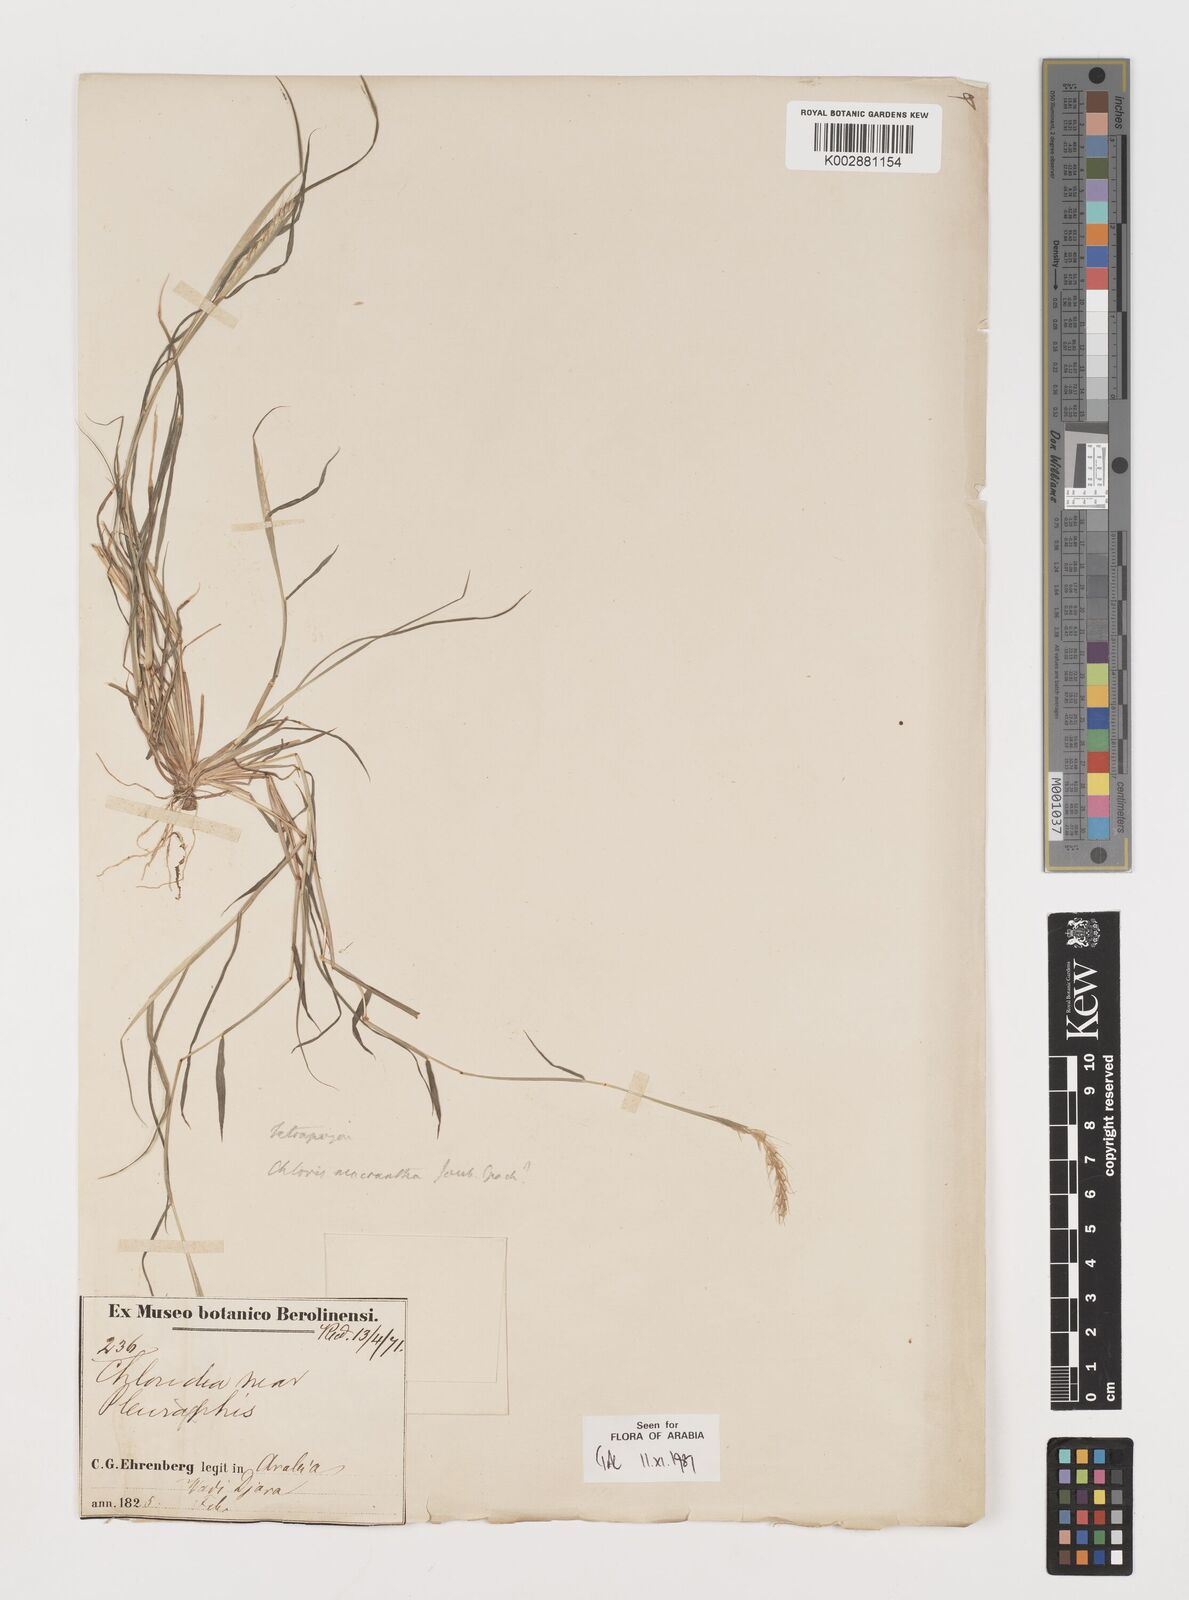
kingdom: Plantae
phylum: Tracheophyta
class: Liliopsida
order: Poales
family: Poaceae
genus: Tetrapogon
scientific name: Tetrapogon tenellus
